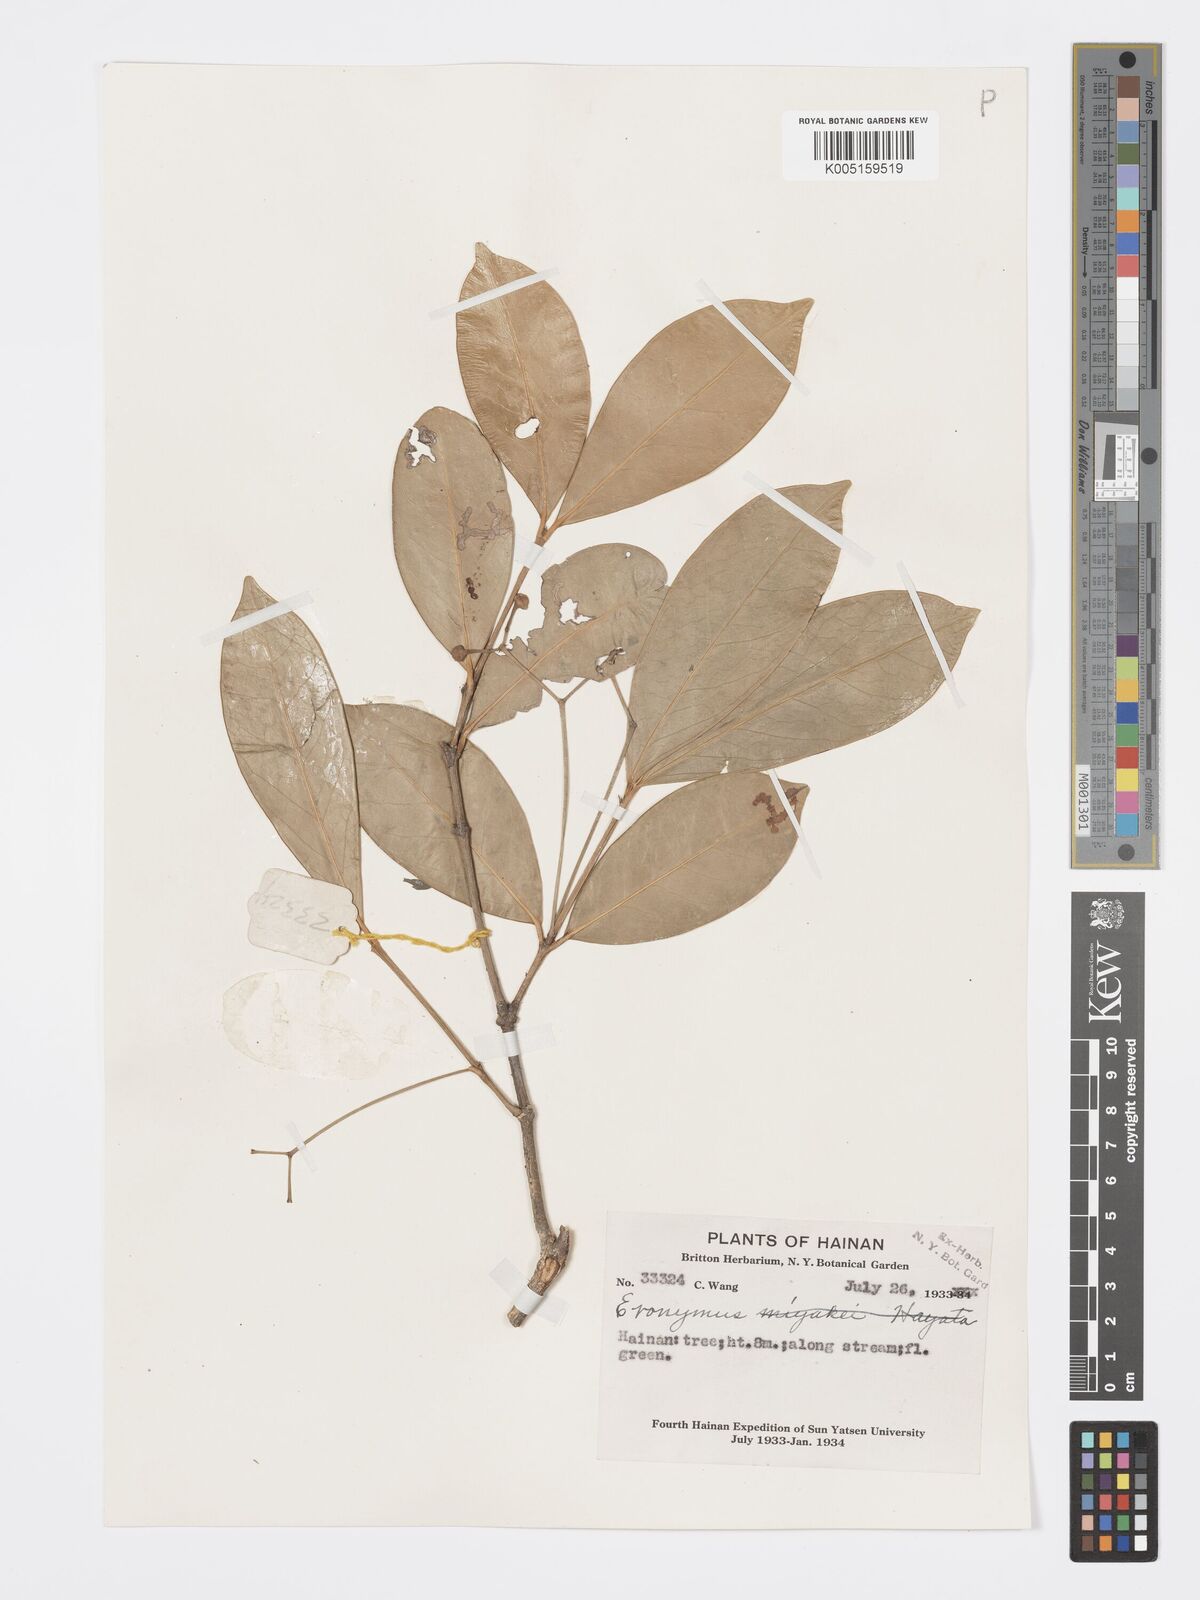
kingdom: Plantae
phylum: Tracheophyta
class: Magnoliopsida
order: Celastrales
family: Celastraceae
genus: Euonymus
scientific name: Euonymus cochinchinensis
